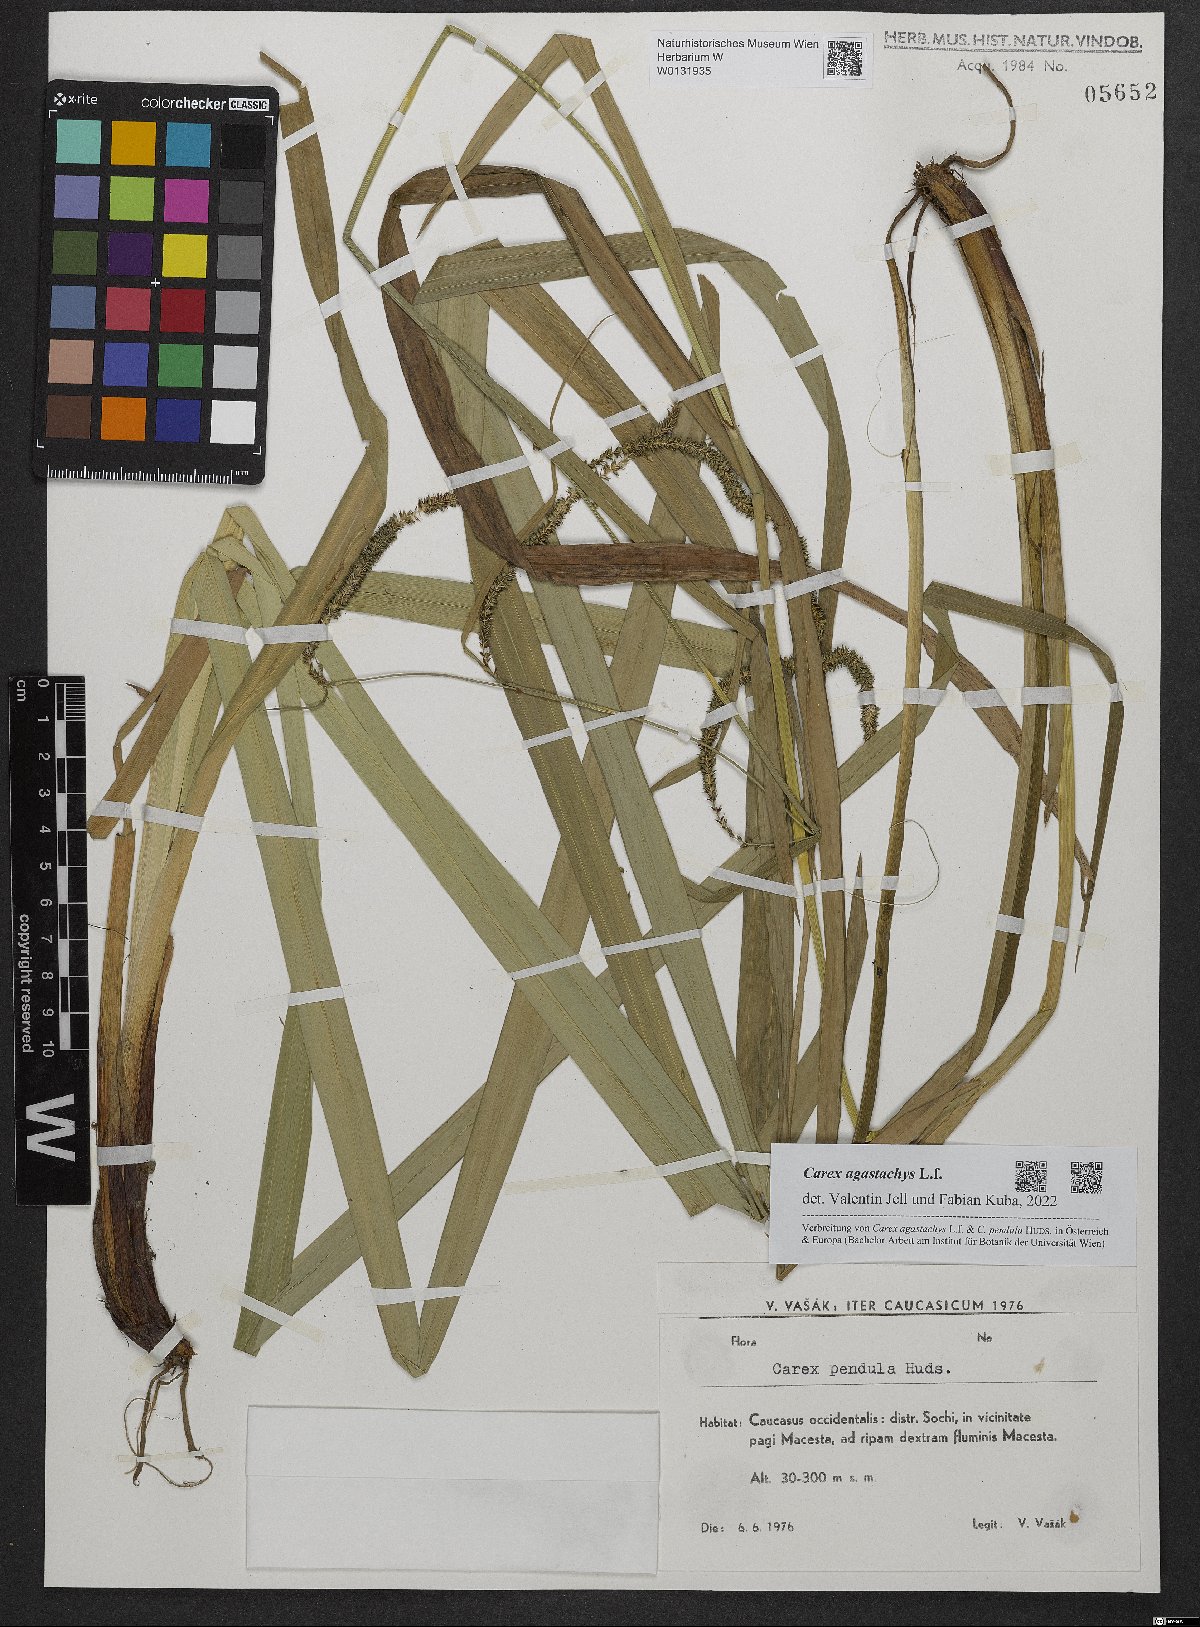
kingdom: Plantae
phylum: Tracheophyta
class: Liliopsida
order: Poales
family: Cyperaceae
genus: Carex
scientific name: Carex agastachys
